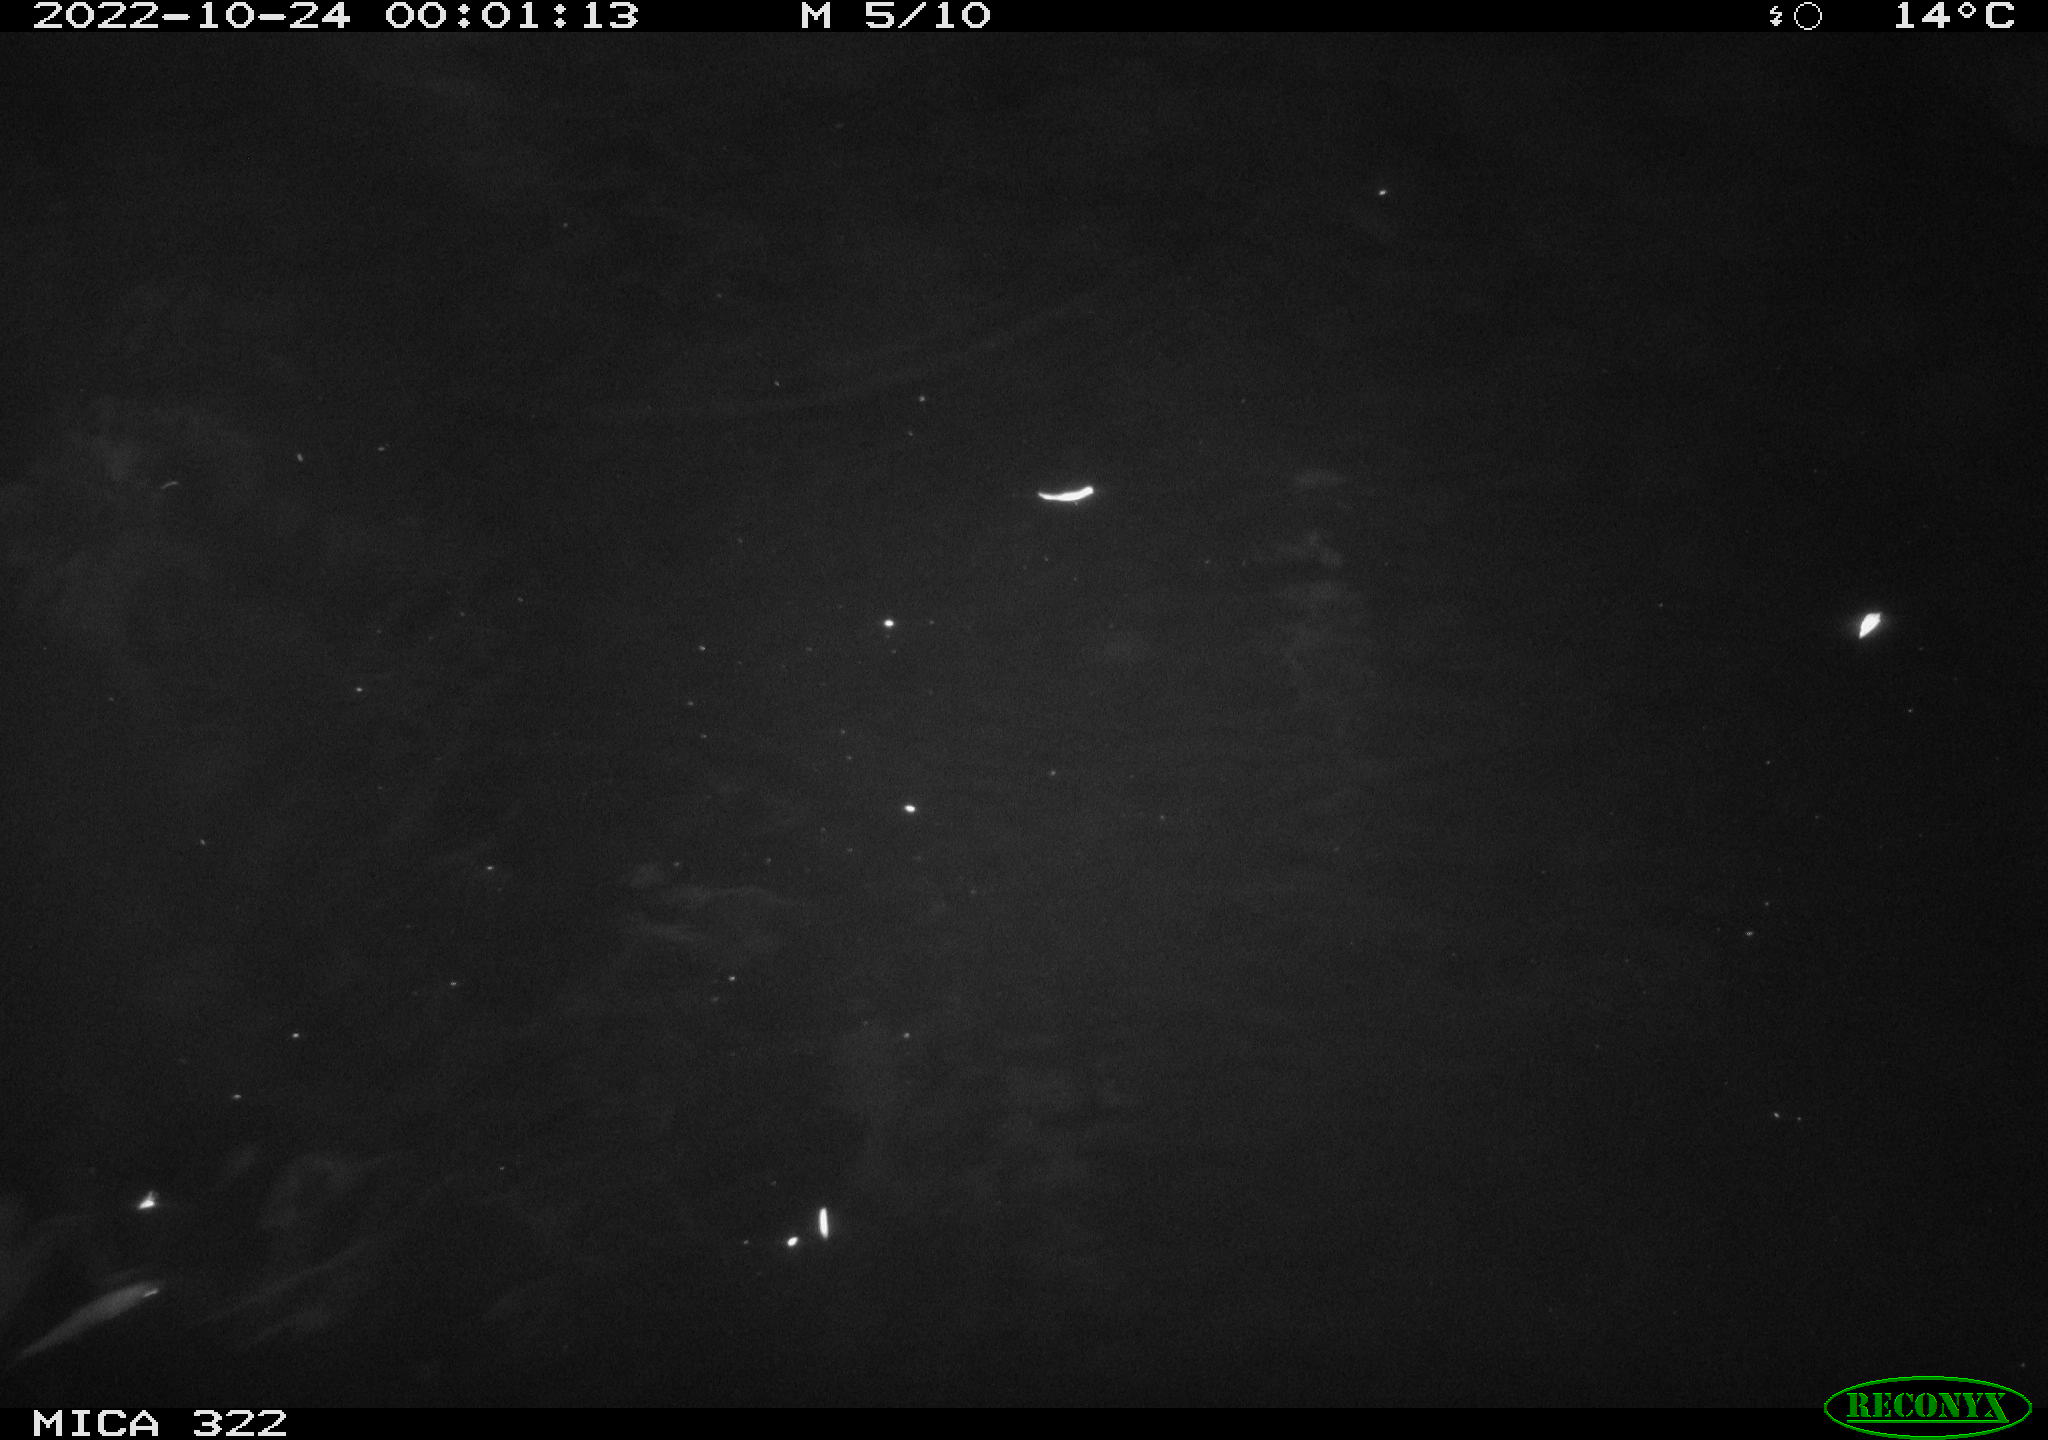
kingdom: Animalia
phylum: Chordata
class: Mammalia
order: Rodentia
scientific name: Rodentia
